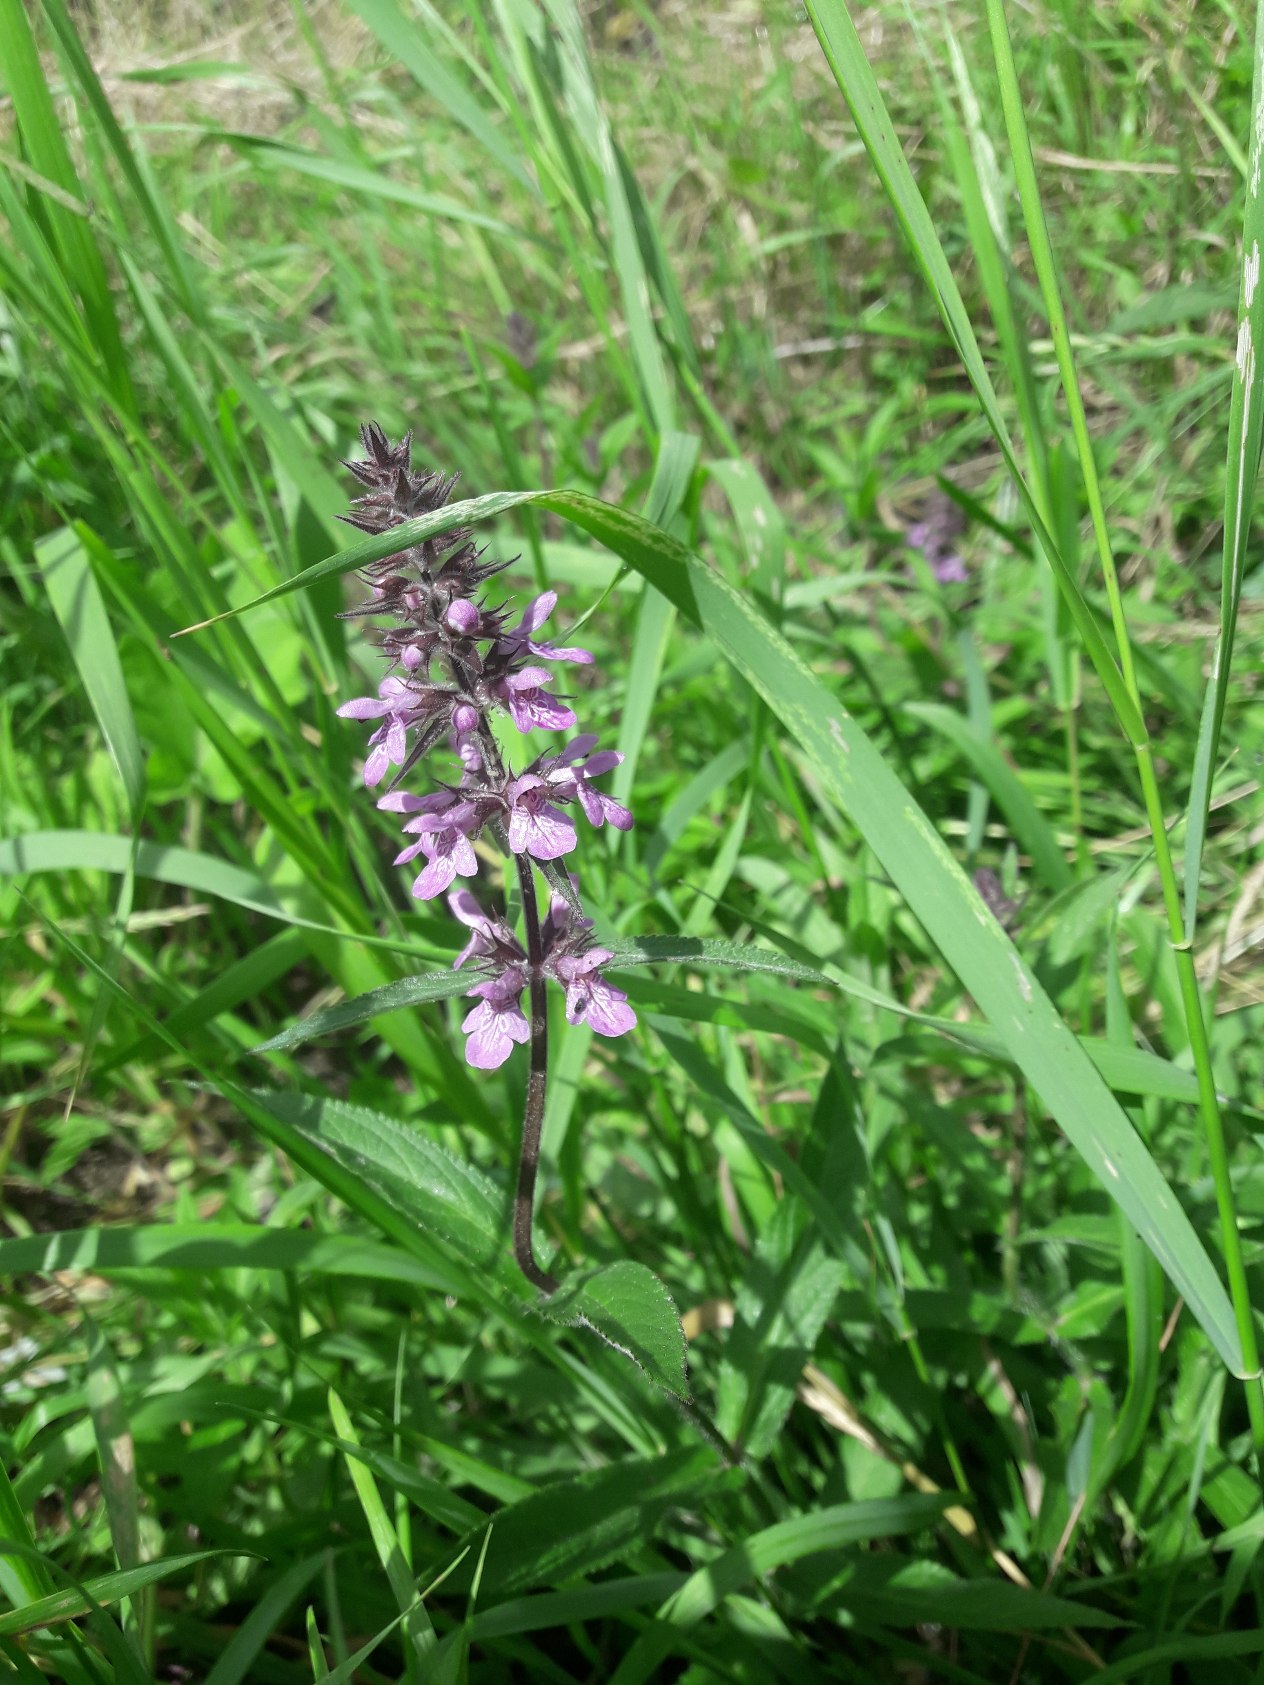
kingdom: Plantae
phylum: Tracheophyta
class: Magnoliopsida
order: Lamiales
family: Lamiaceae
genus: Stachys
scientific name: Stachys palustris
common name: Kær-galtetand
